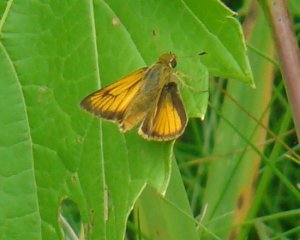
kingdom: Animalia
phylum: Arthropoda
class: Insecta
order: Lepidoptera
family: Hesperiidae
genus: Atrytone
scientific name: Atrytone delaware
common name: Delaware Skipper
